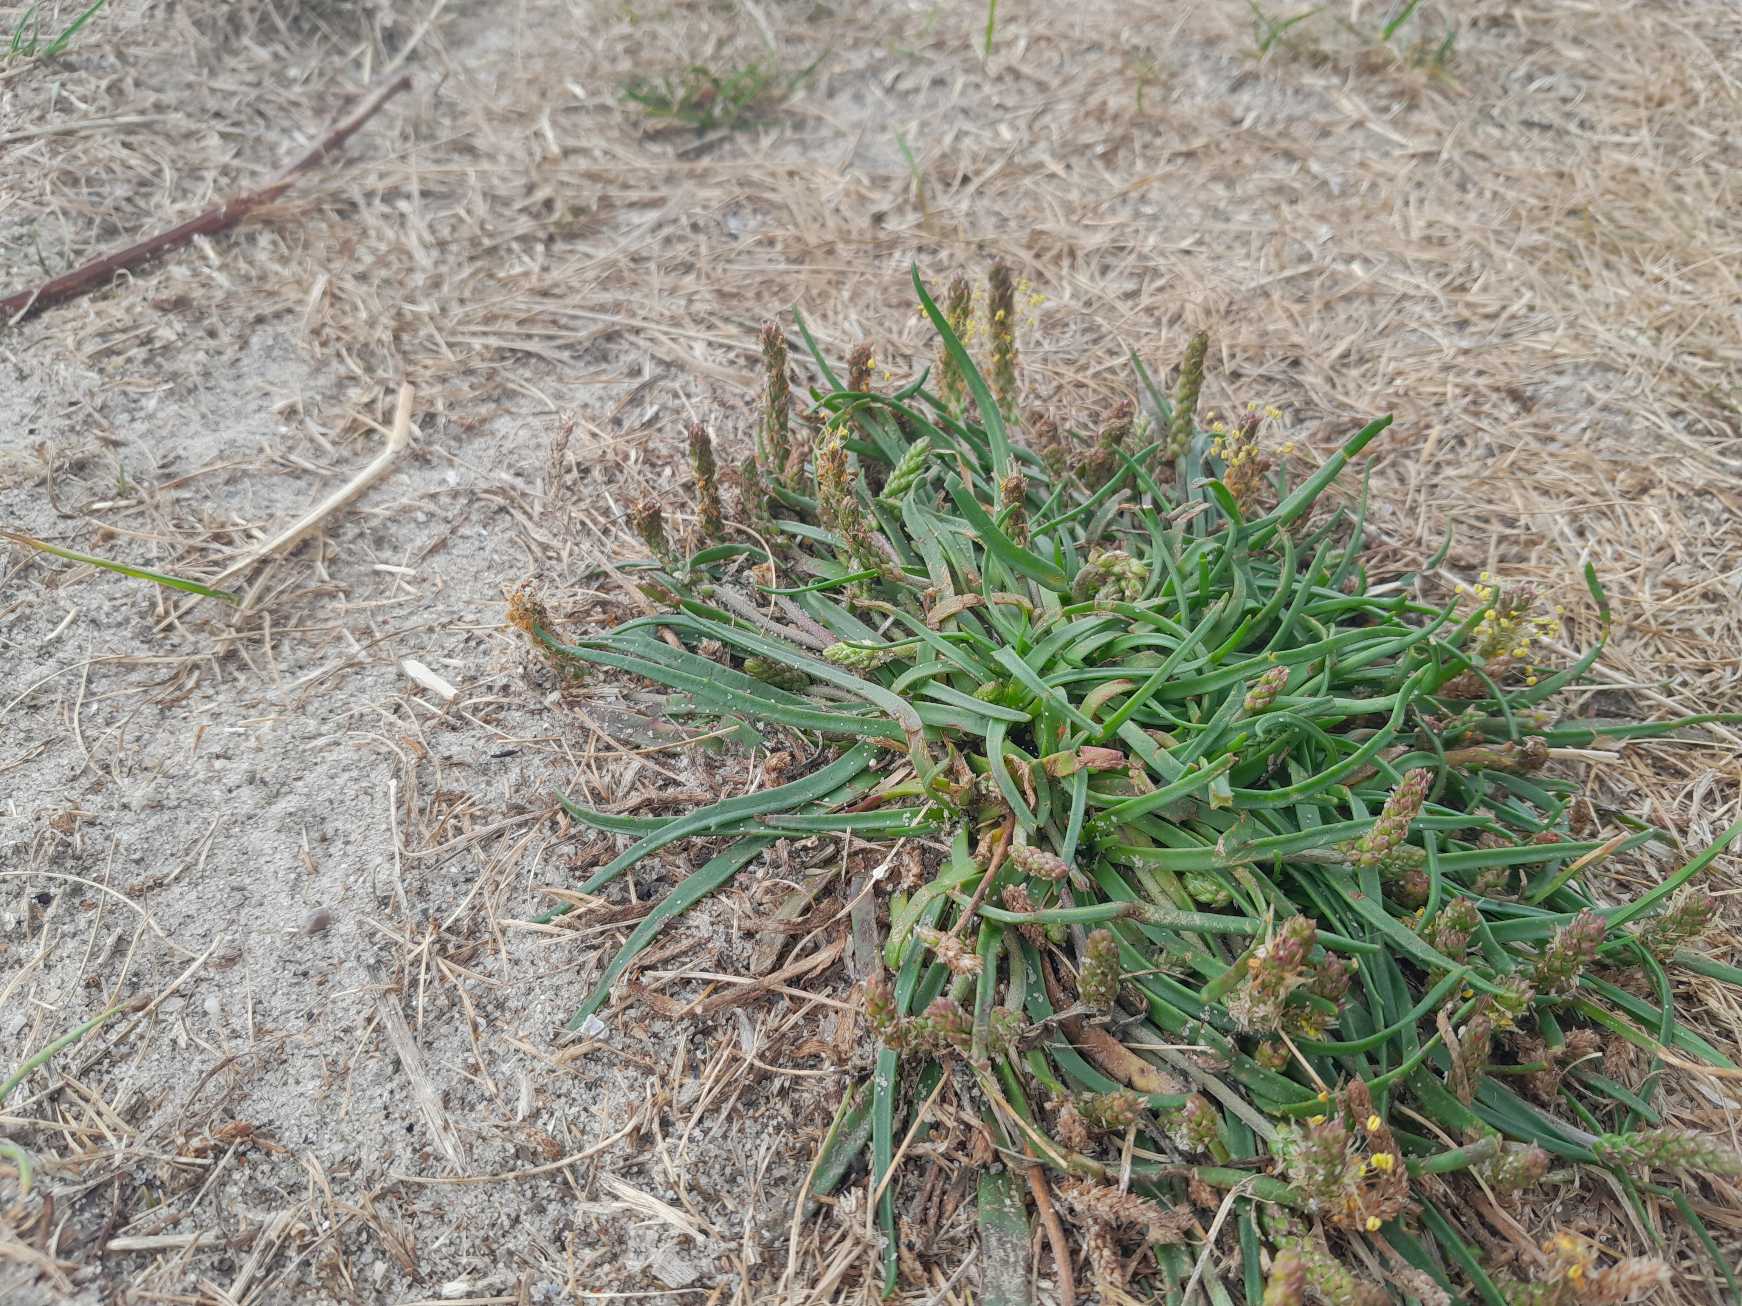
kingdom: Plantae
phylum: Tracheophyta
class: Magnoliopsida
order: Lamiales
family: Plantaginaceae
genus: Plantago
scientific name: Plantago maritima
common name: Strand-vejbred
